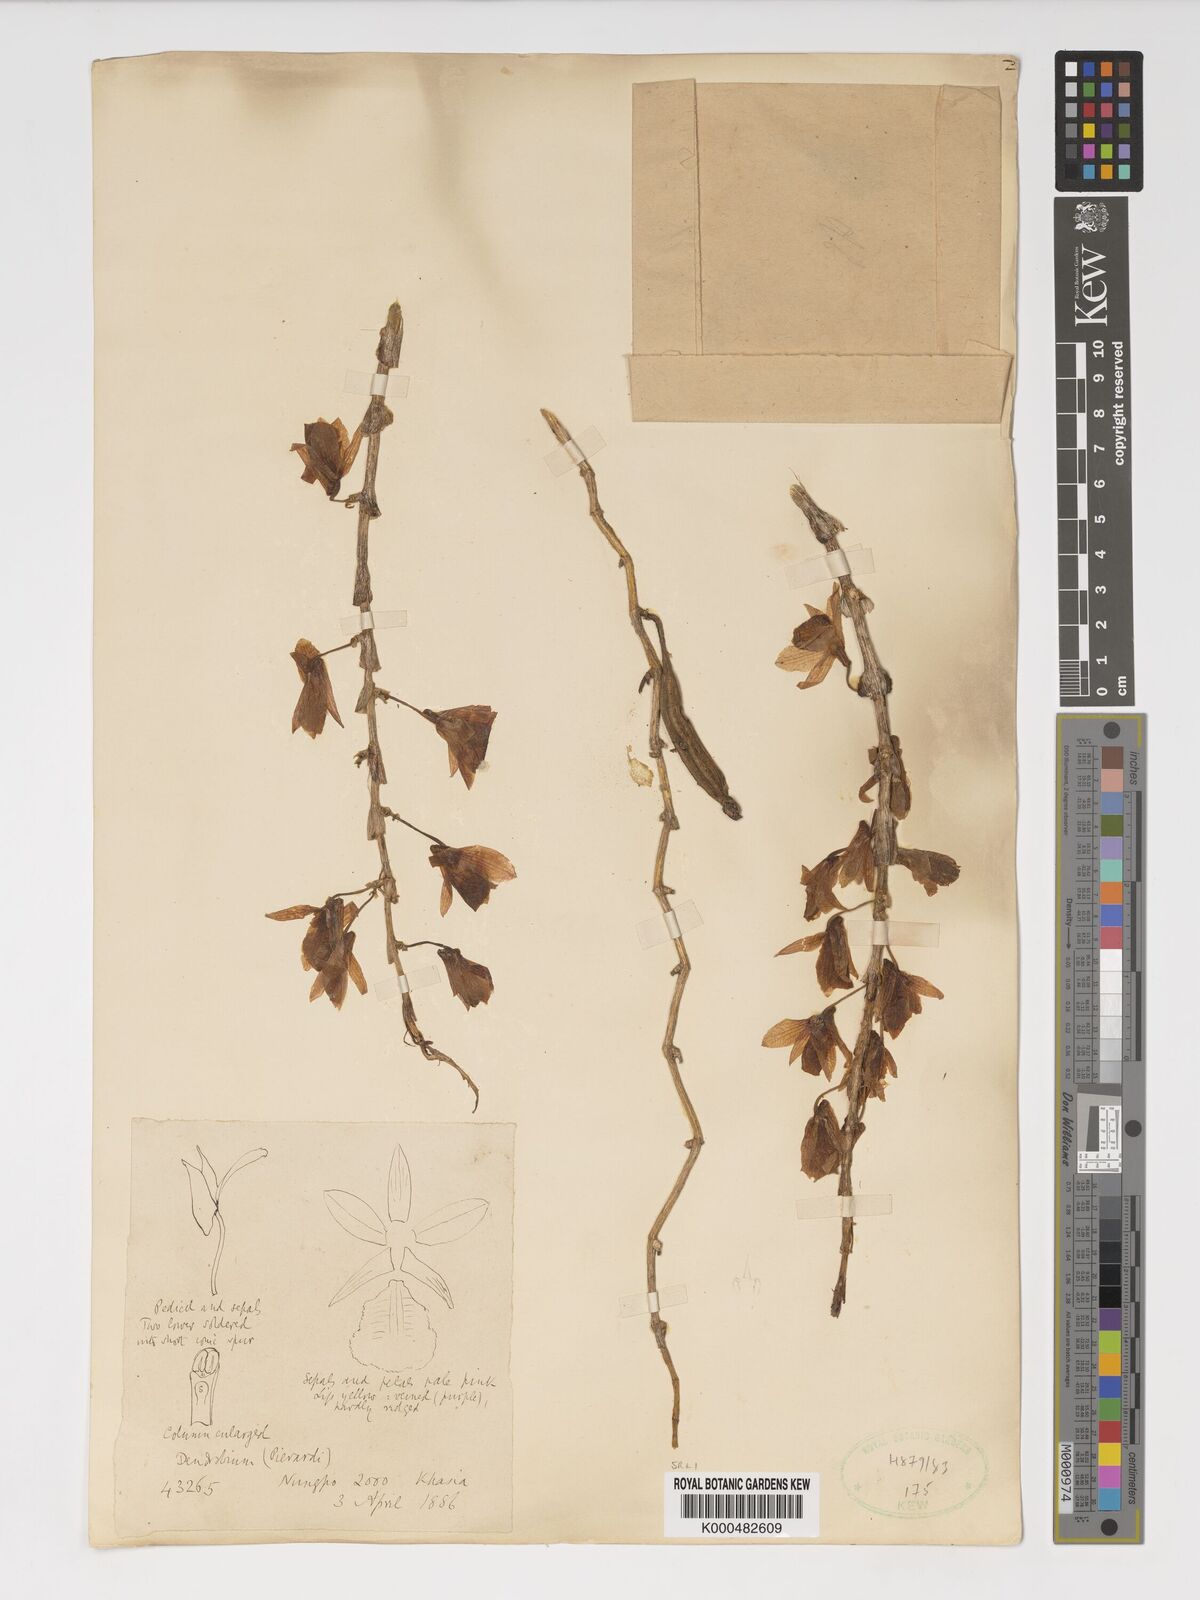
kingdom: Plantae
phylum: Tracheophyta
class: Liliopsida
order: Asparagales
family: Orchidaceae
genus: Dendrobium
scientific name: Dendrobium macrostachyum
